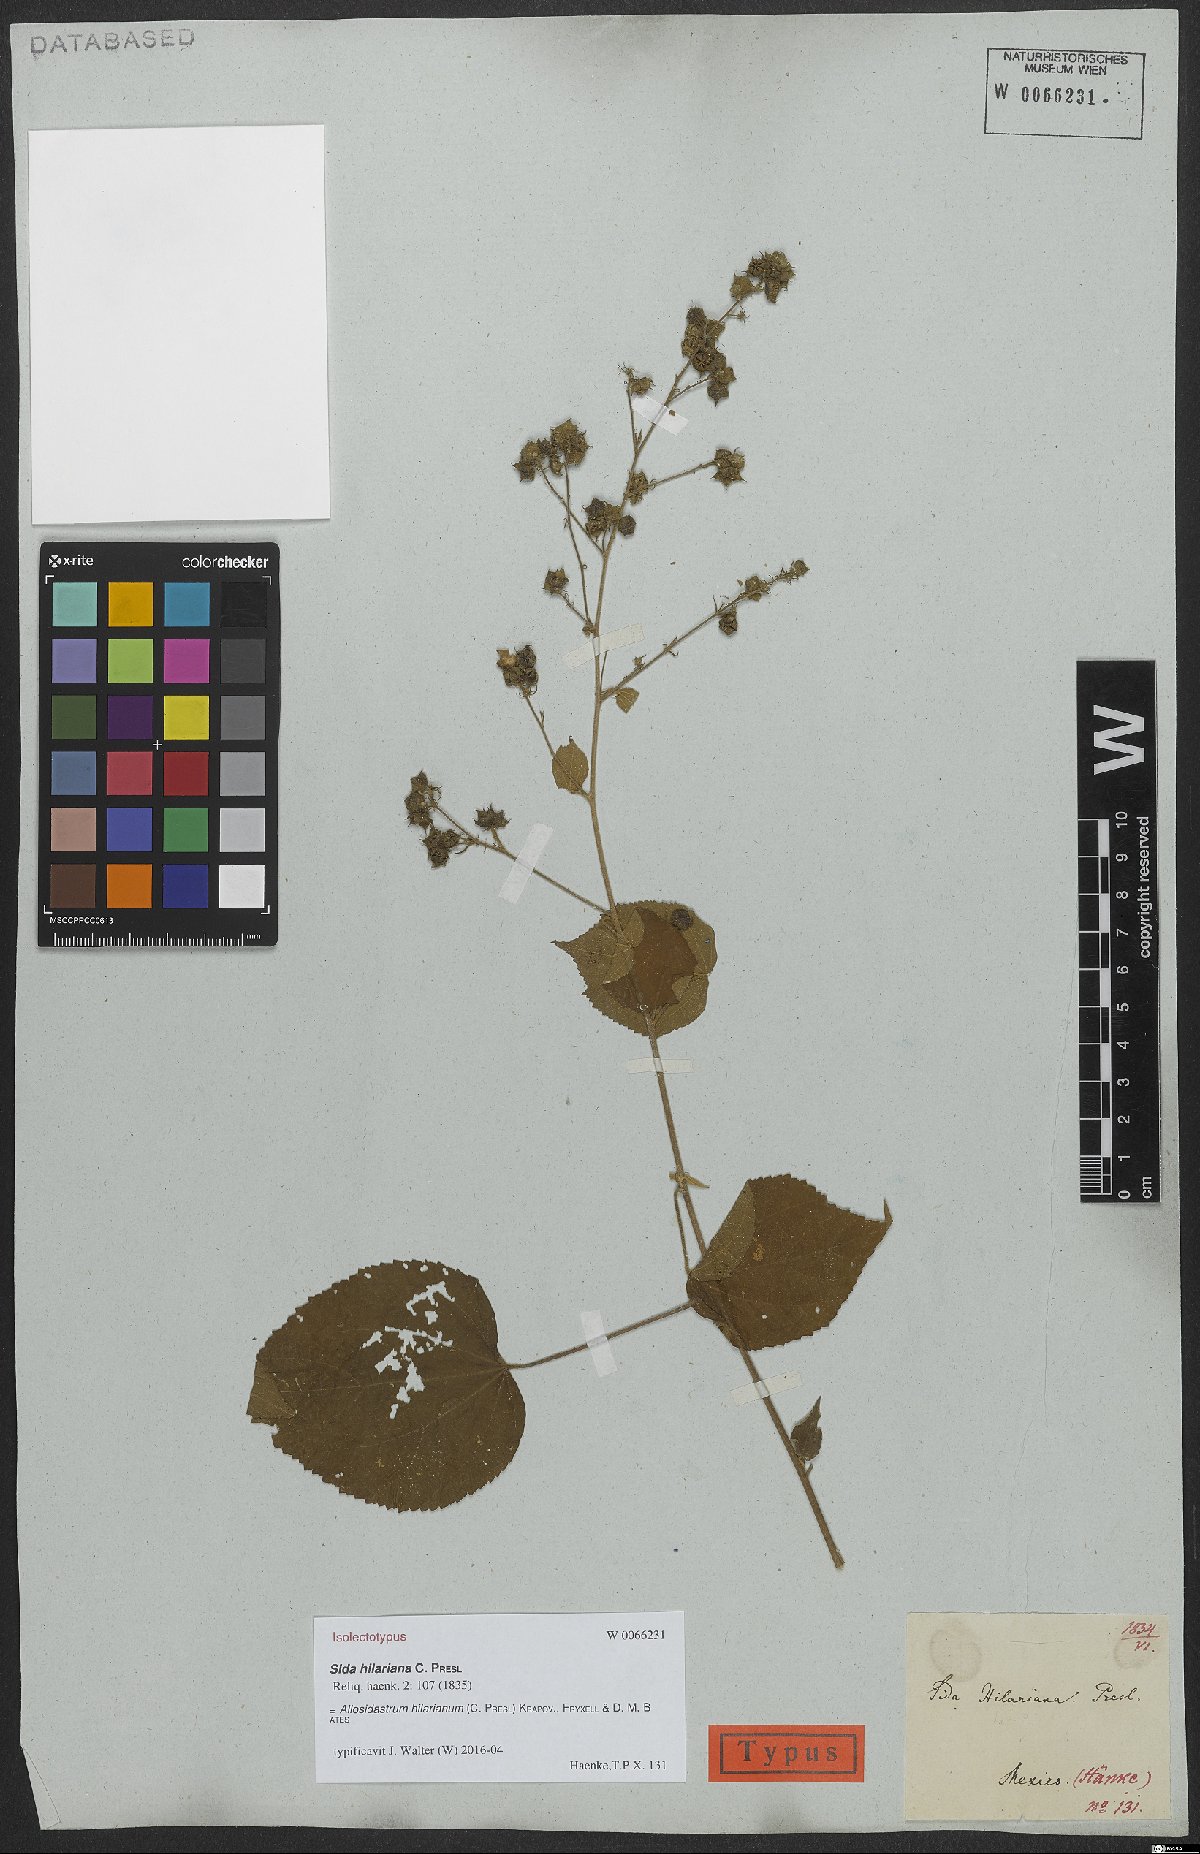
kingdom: Plantae
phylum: Tracheophyta
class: Magnoliopsida
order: Malvales
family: Malvaceae
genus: Allosidastrum
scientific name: Allosidastrum hilarianum
